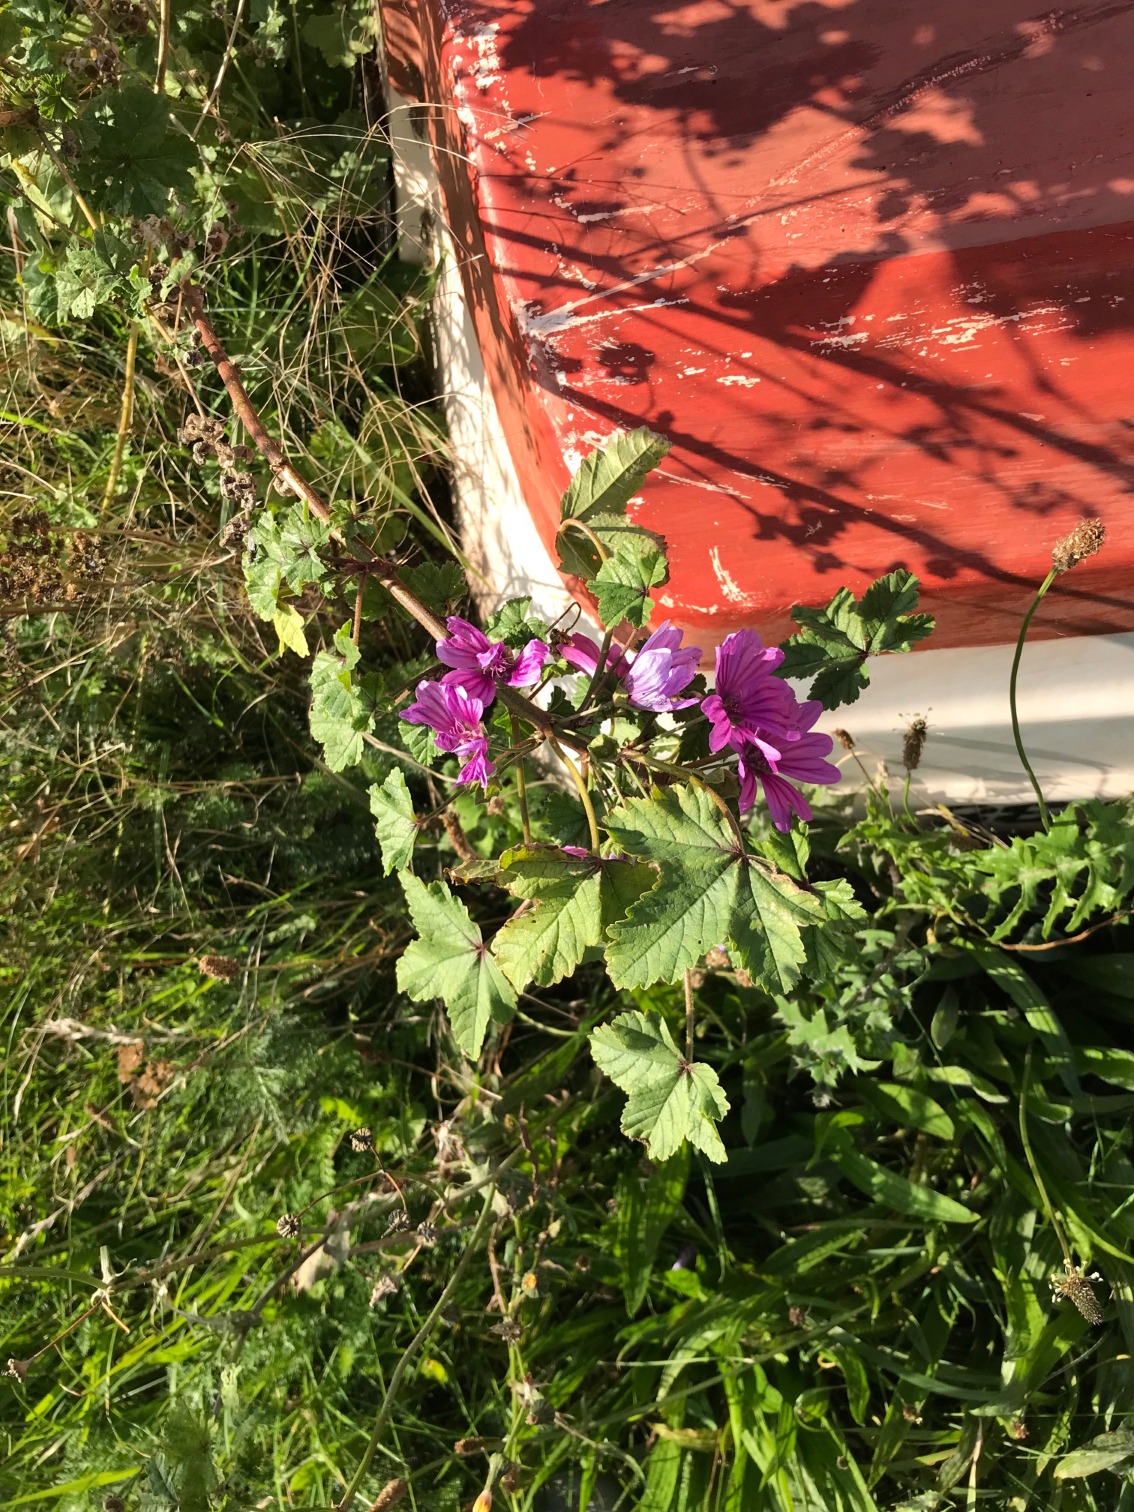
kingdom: Plantae
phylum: Tracheophyta
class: Magnoliopsida
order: Malvales
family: Malvaceae
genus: Malva
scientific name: Malva sylvestris
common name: Almindelig katost
